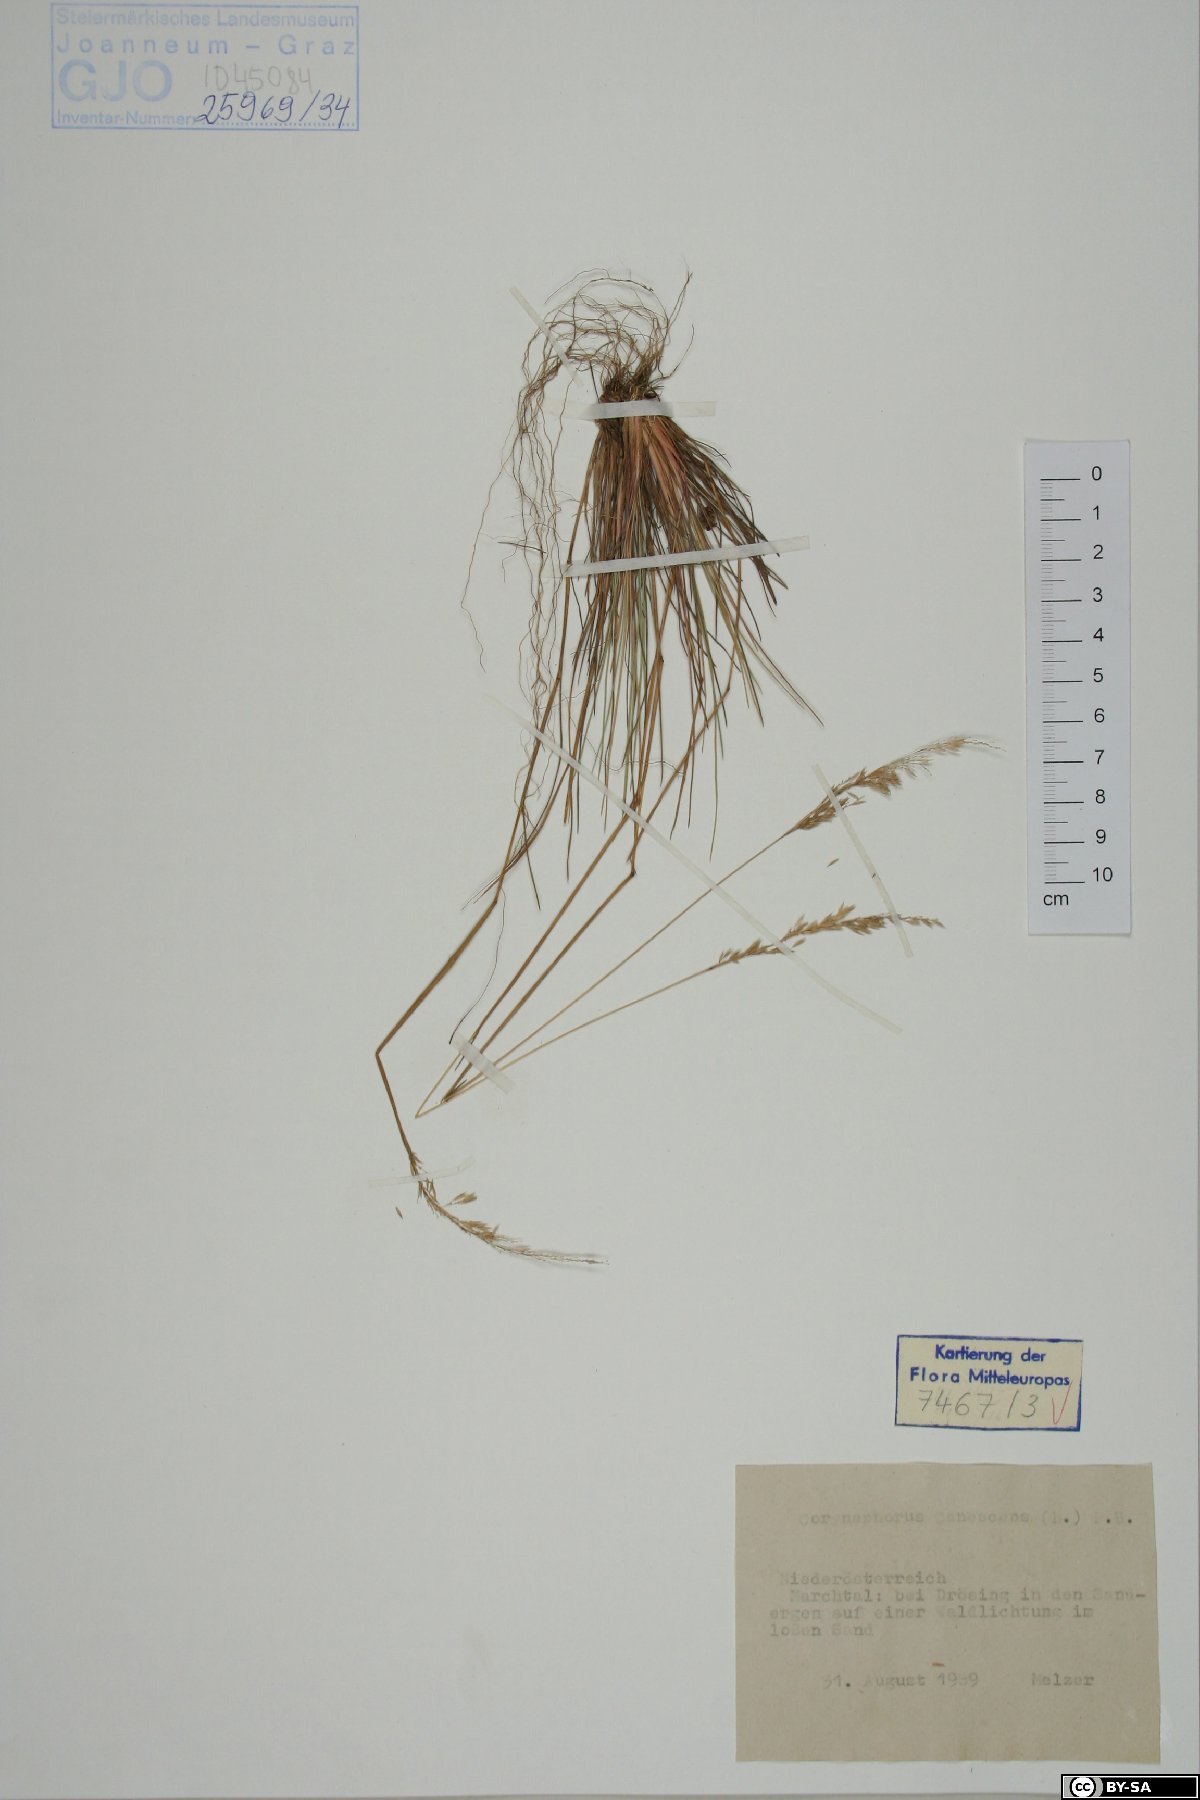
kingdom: Plantae
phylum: Tracheophyta
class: Liliopsida
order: Poales
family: Poaceae
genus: Corynephorus
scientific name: Corynephorus canescens
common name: Grey hair-grass
